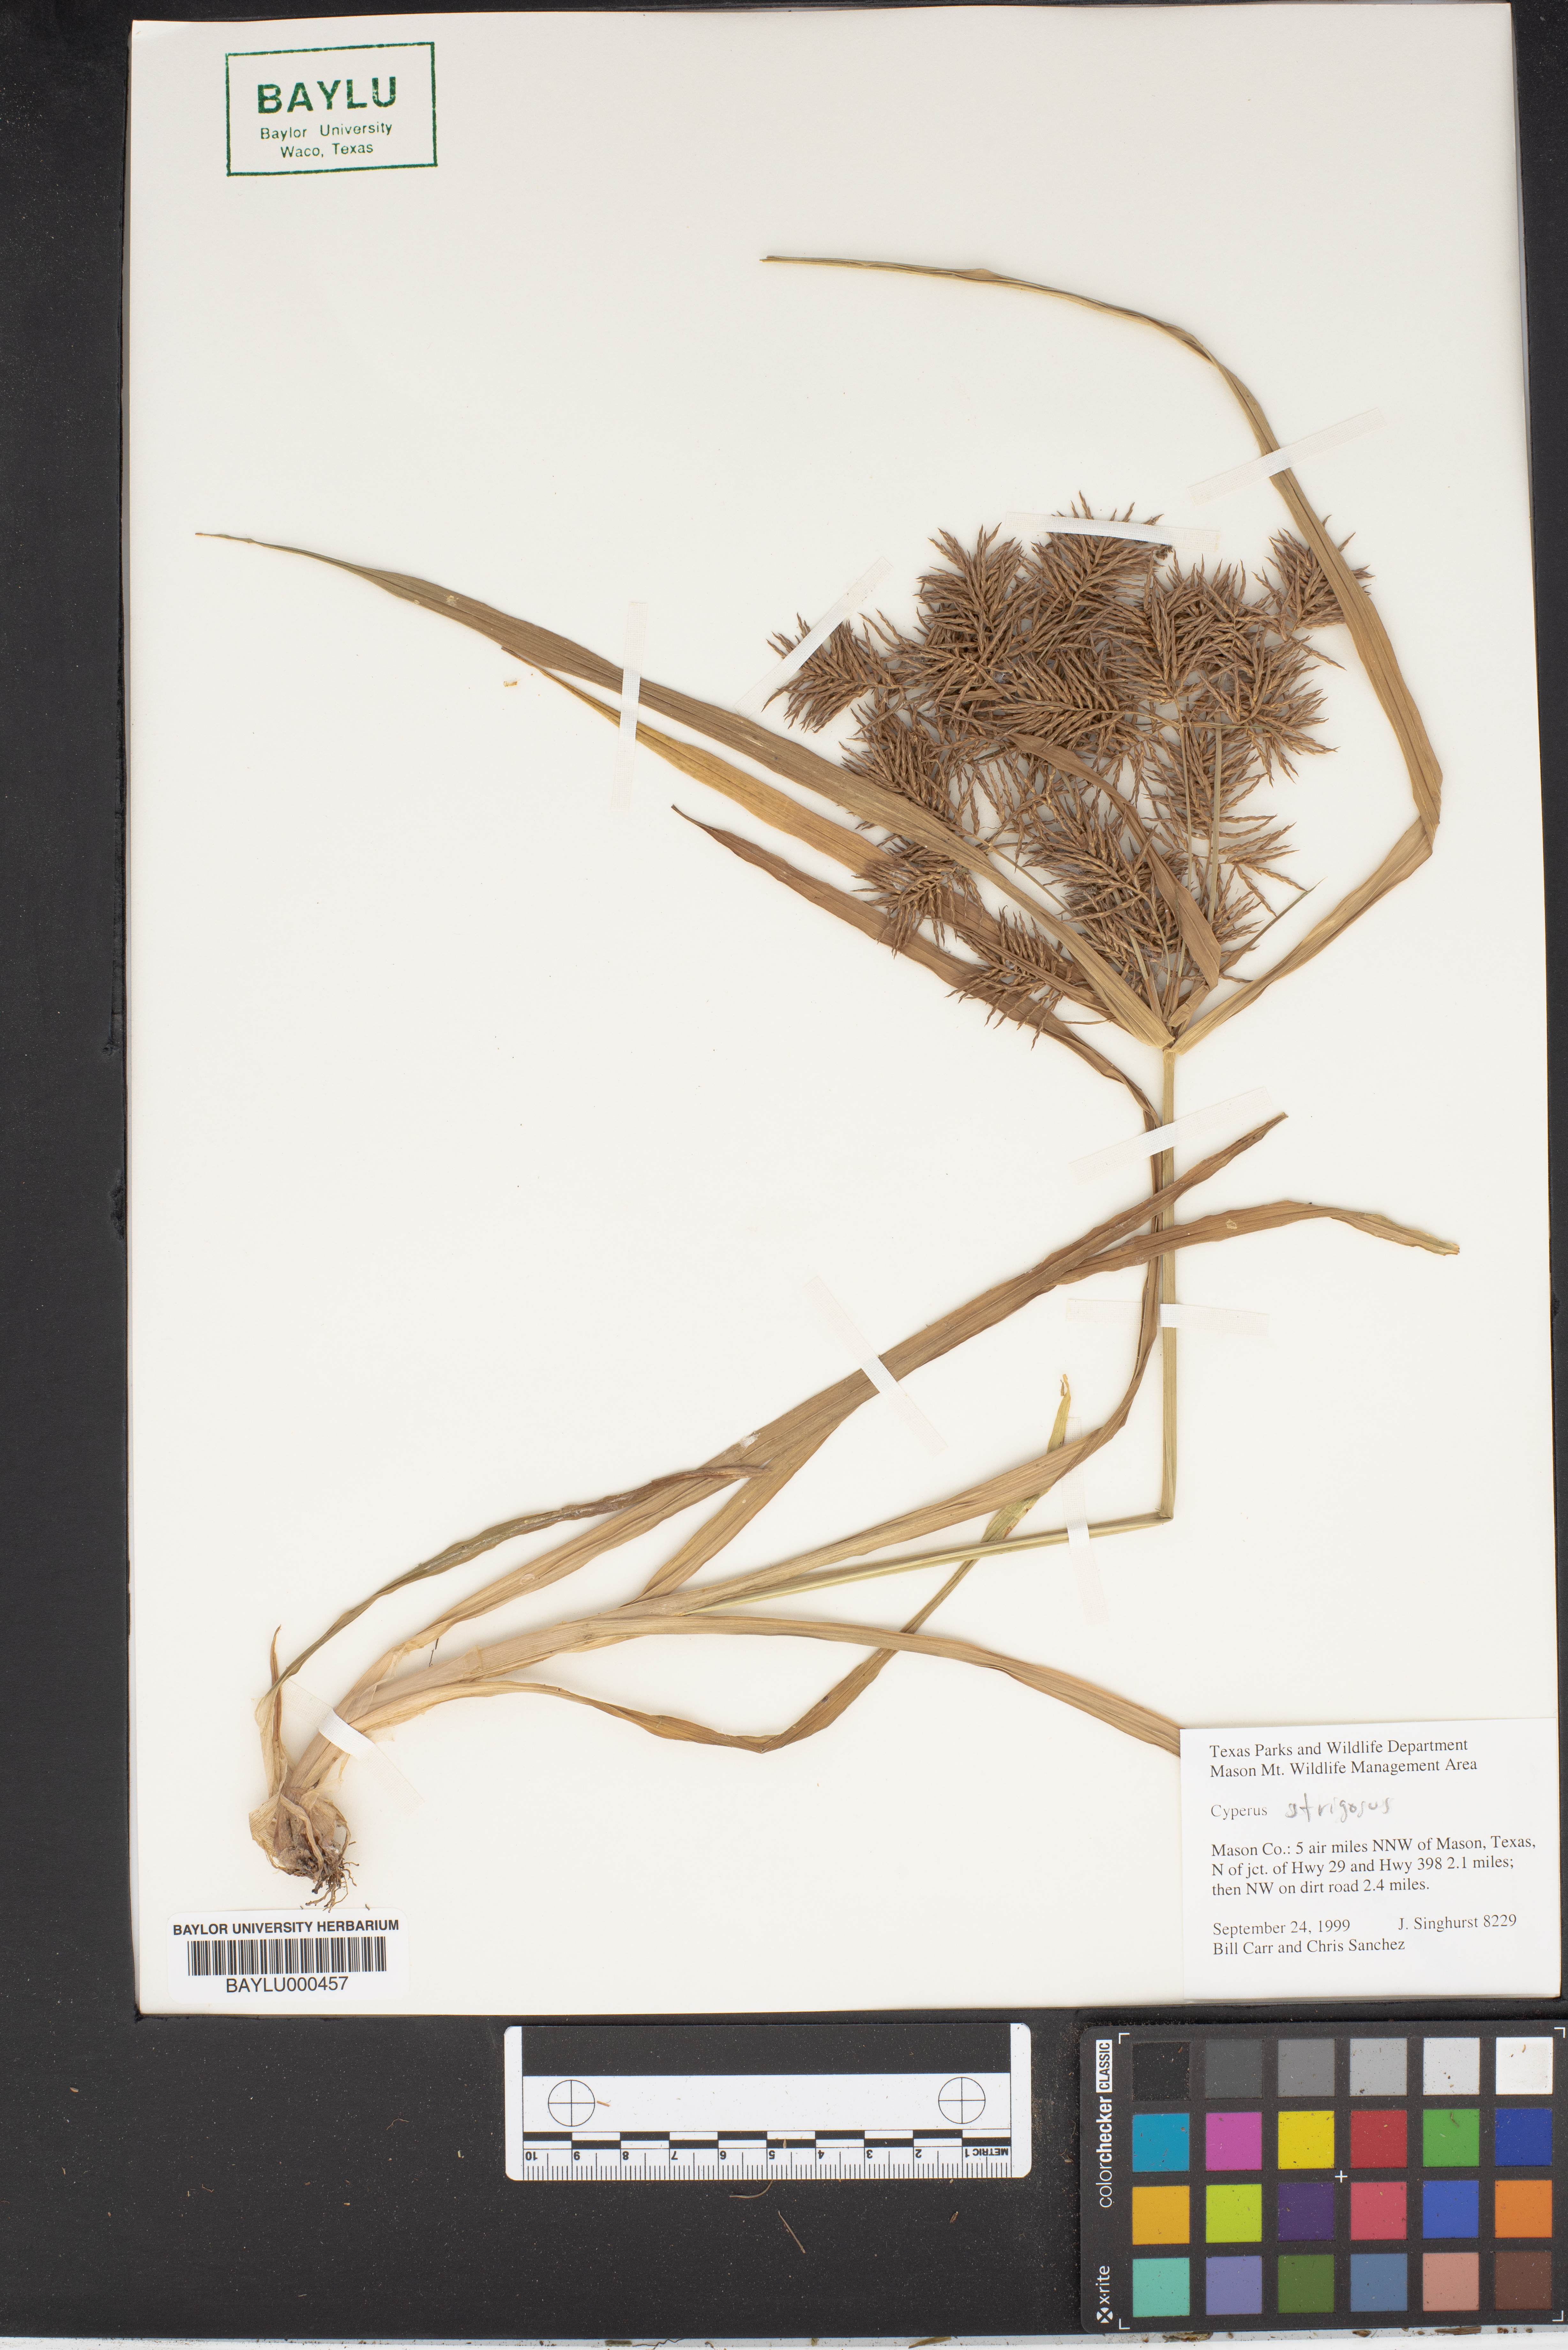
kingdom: Plantae
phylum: Tracheophyta
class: Liliopsida
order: Poales
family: Cyperaceae
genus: Cyperus
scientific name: Cyperus strigosus
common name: False nutsedge
